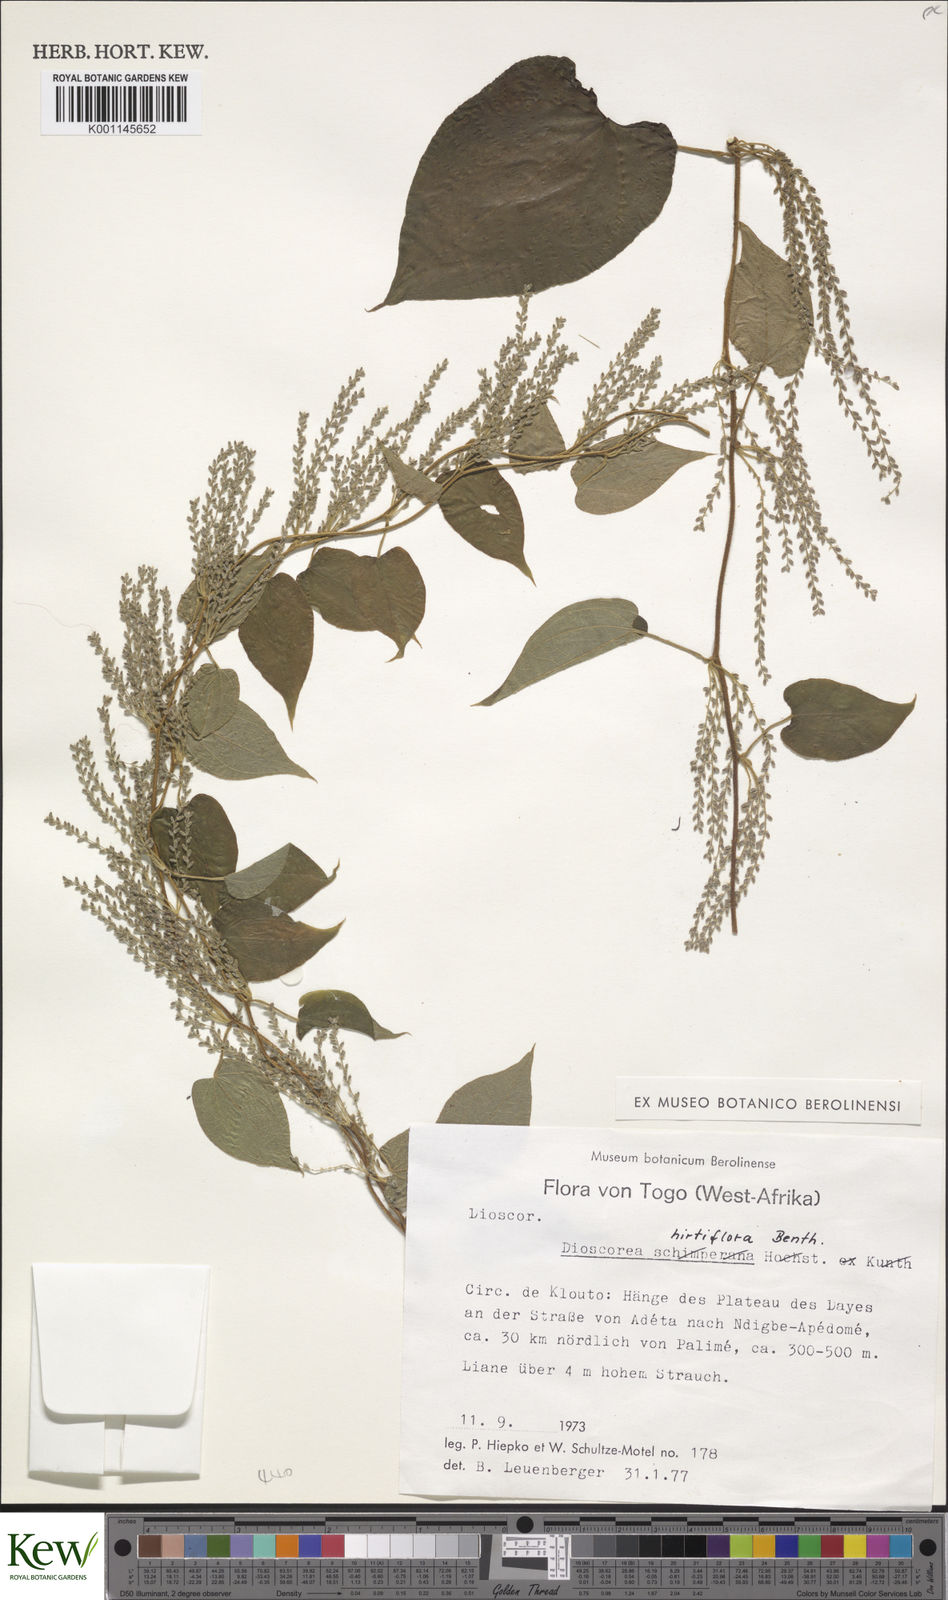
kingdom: Plantae
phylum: Tracheophyta
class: Liliopsida
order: Dioscoreales
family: Dioscoreaceae
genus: Dioscorea
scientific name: Dioscorea hirtiflora
